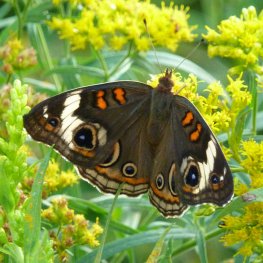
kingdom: Animalia
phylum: Arthropoda
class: Insecta
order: Lepidoptera
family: Nymphalidae
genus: Junonia
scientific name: Junonia coenia
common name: Common Buckeye
